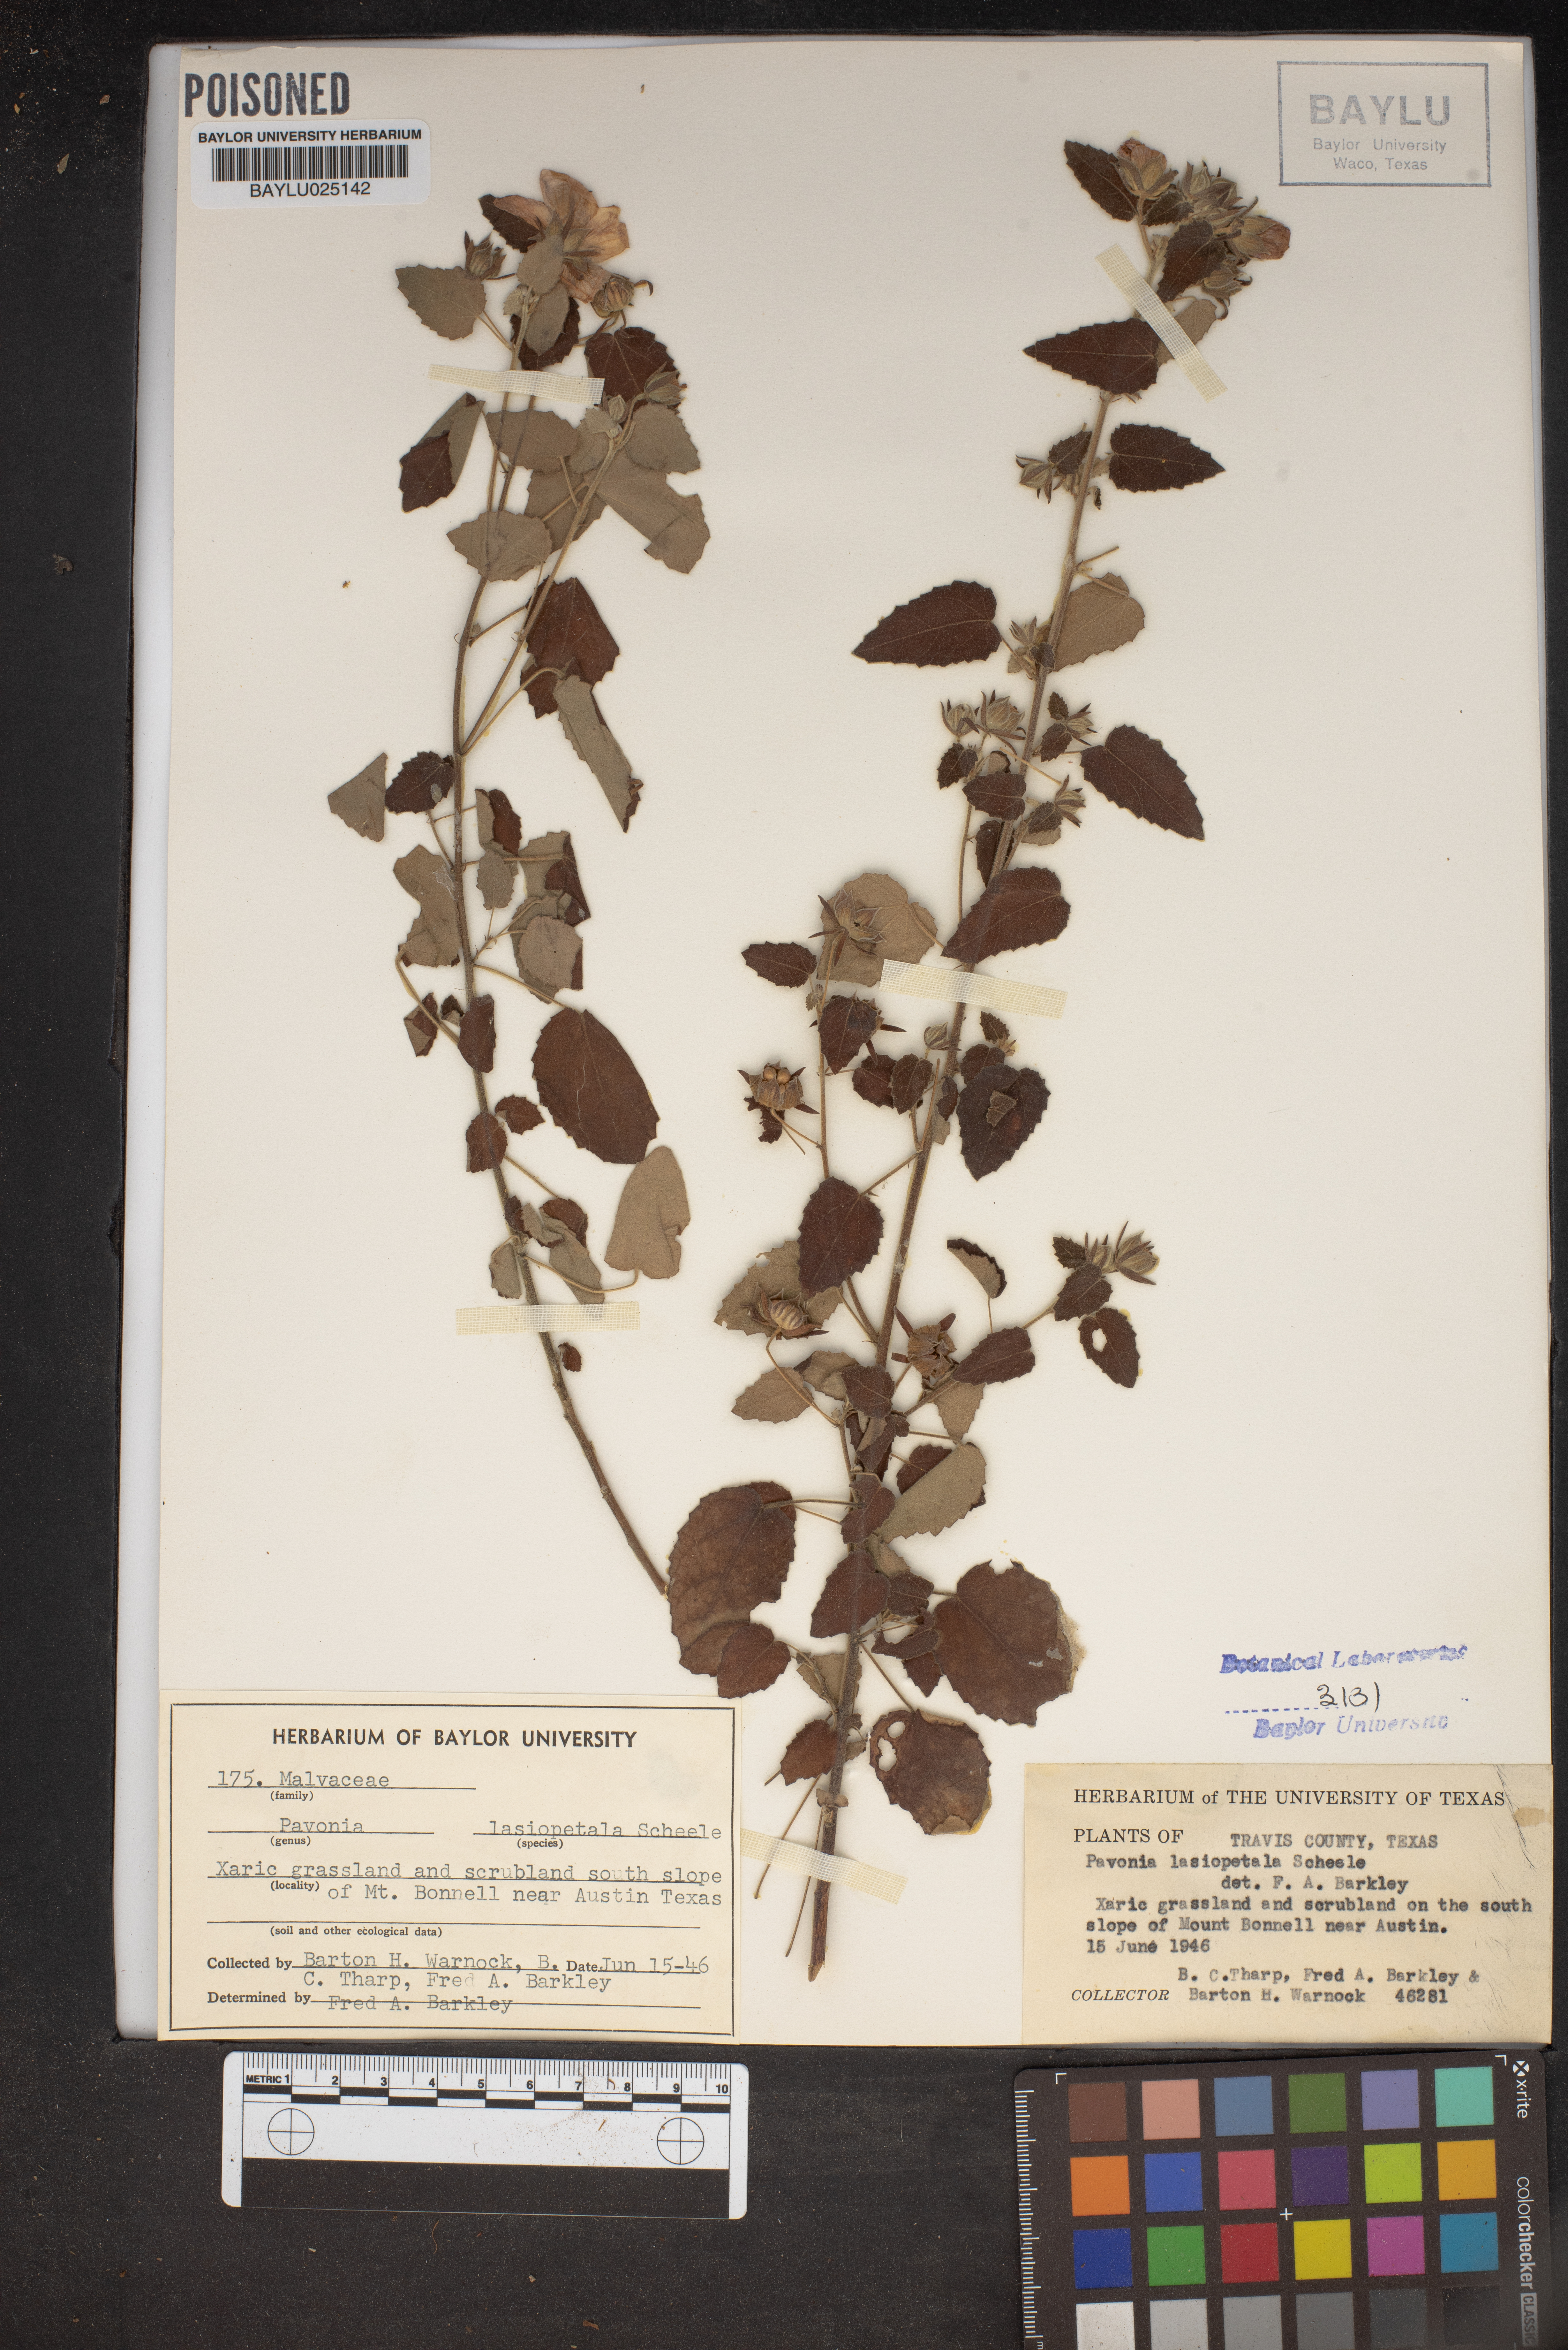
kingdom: Plantae
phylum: Tracheophyta
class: Magnoliopsida
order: Malvales
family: Malvaceae
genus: Pavonia
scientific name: Pavonia lasiopetala
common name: Texas swamp-mallow
